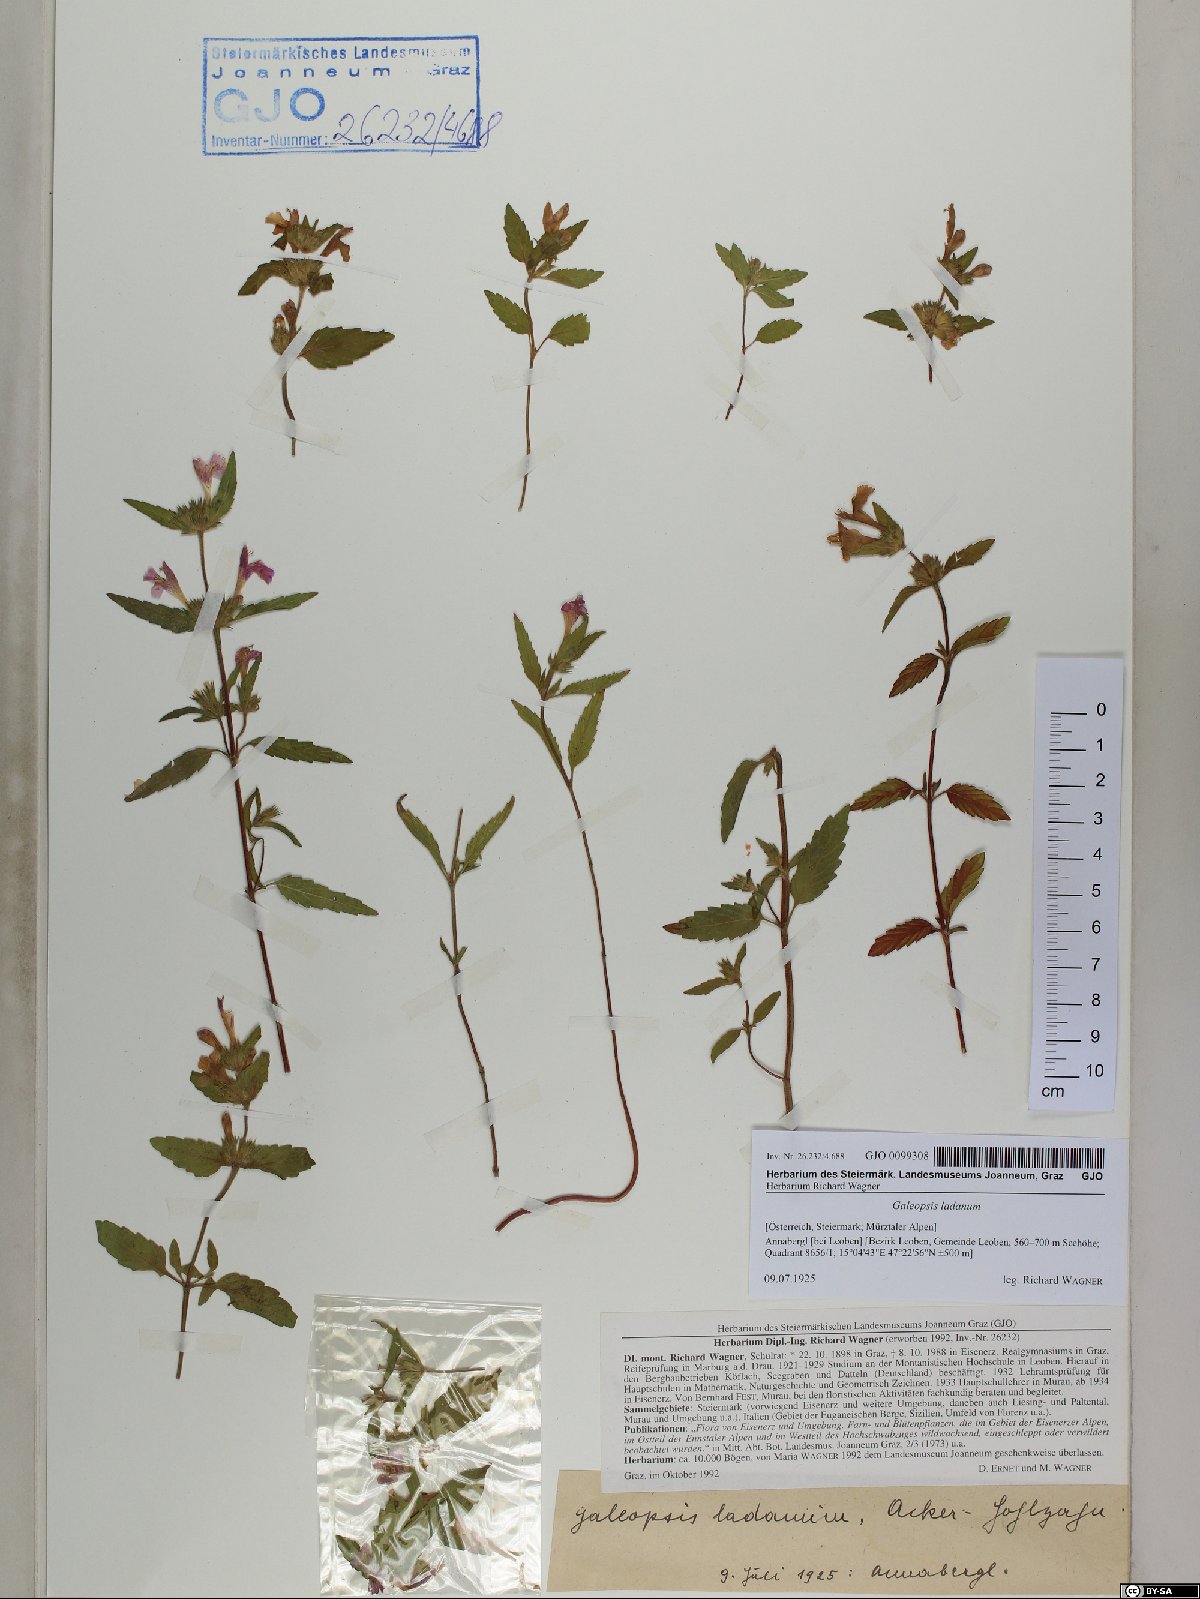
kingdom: Plantae
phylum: Tracheophyta
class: Magnoliopsida
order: Lamiales
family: Lamiaceae
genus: Galeopsis
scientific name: Galeopsis ladanum
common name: Broad-leaved hemp-nettle
